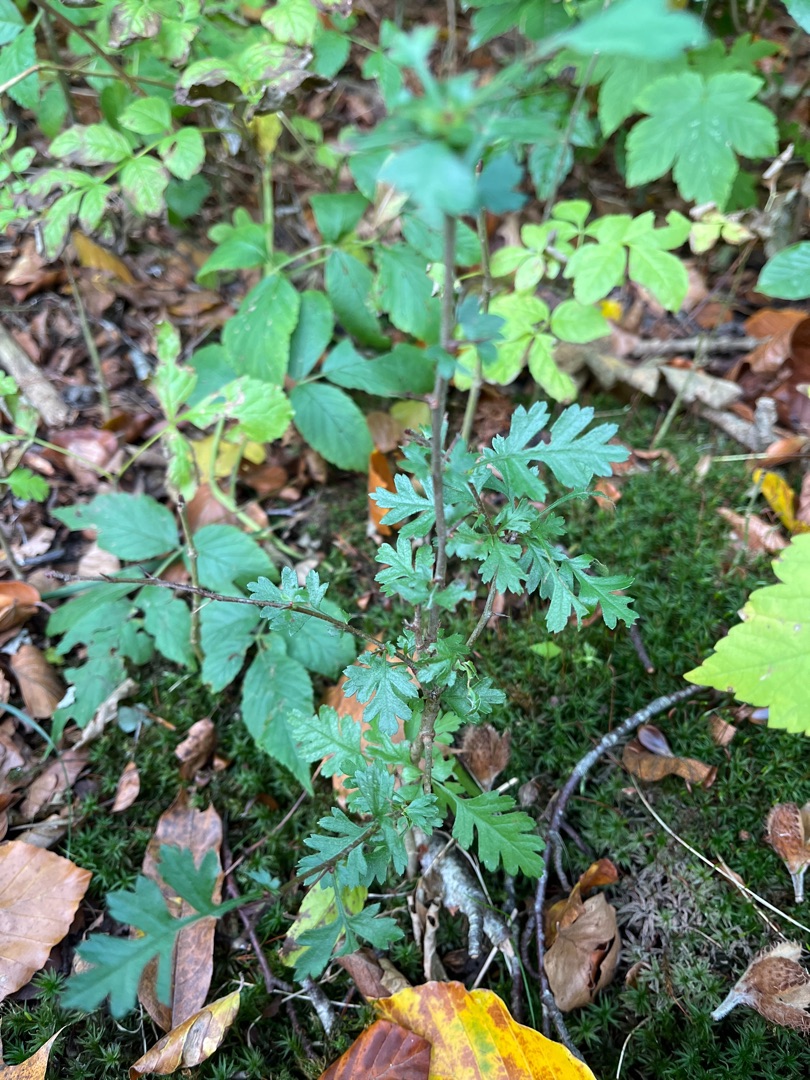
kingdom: Plantae
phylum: Tracheophyta
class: Magnoliopsida
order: Rosales
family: Rosaceae
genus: Crataegus
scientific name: Crataegus monogyna
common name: Engriflet hvidtjørn
